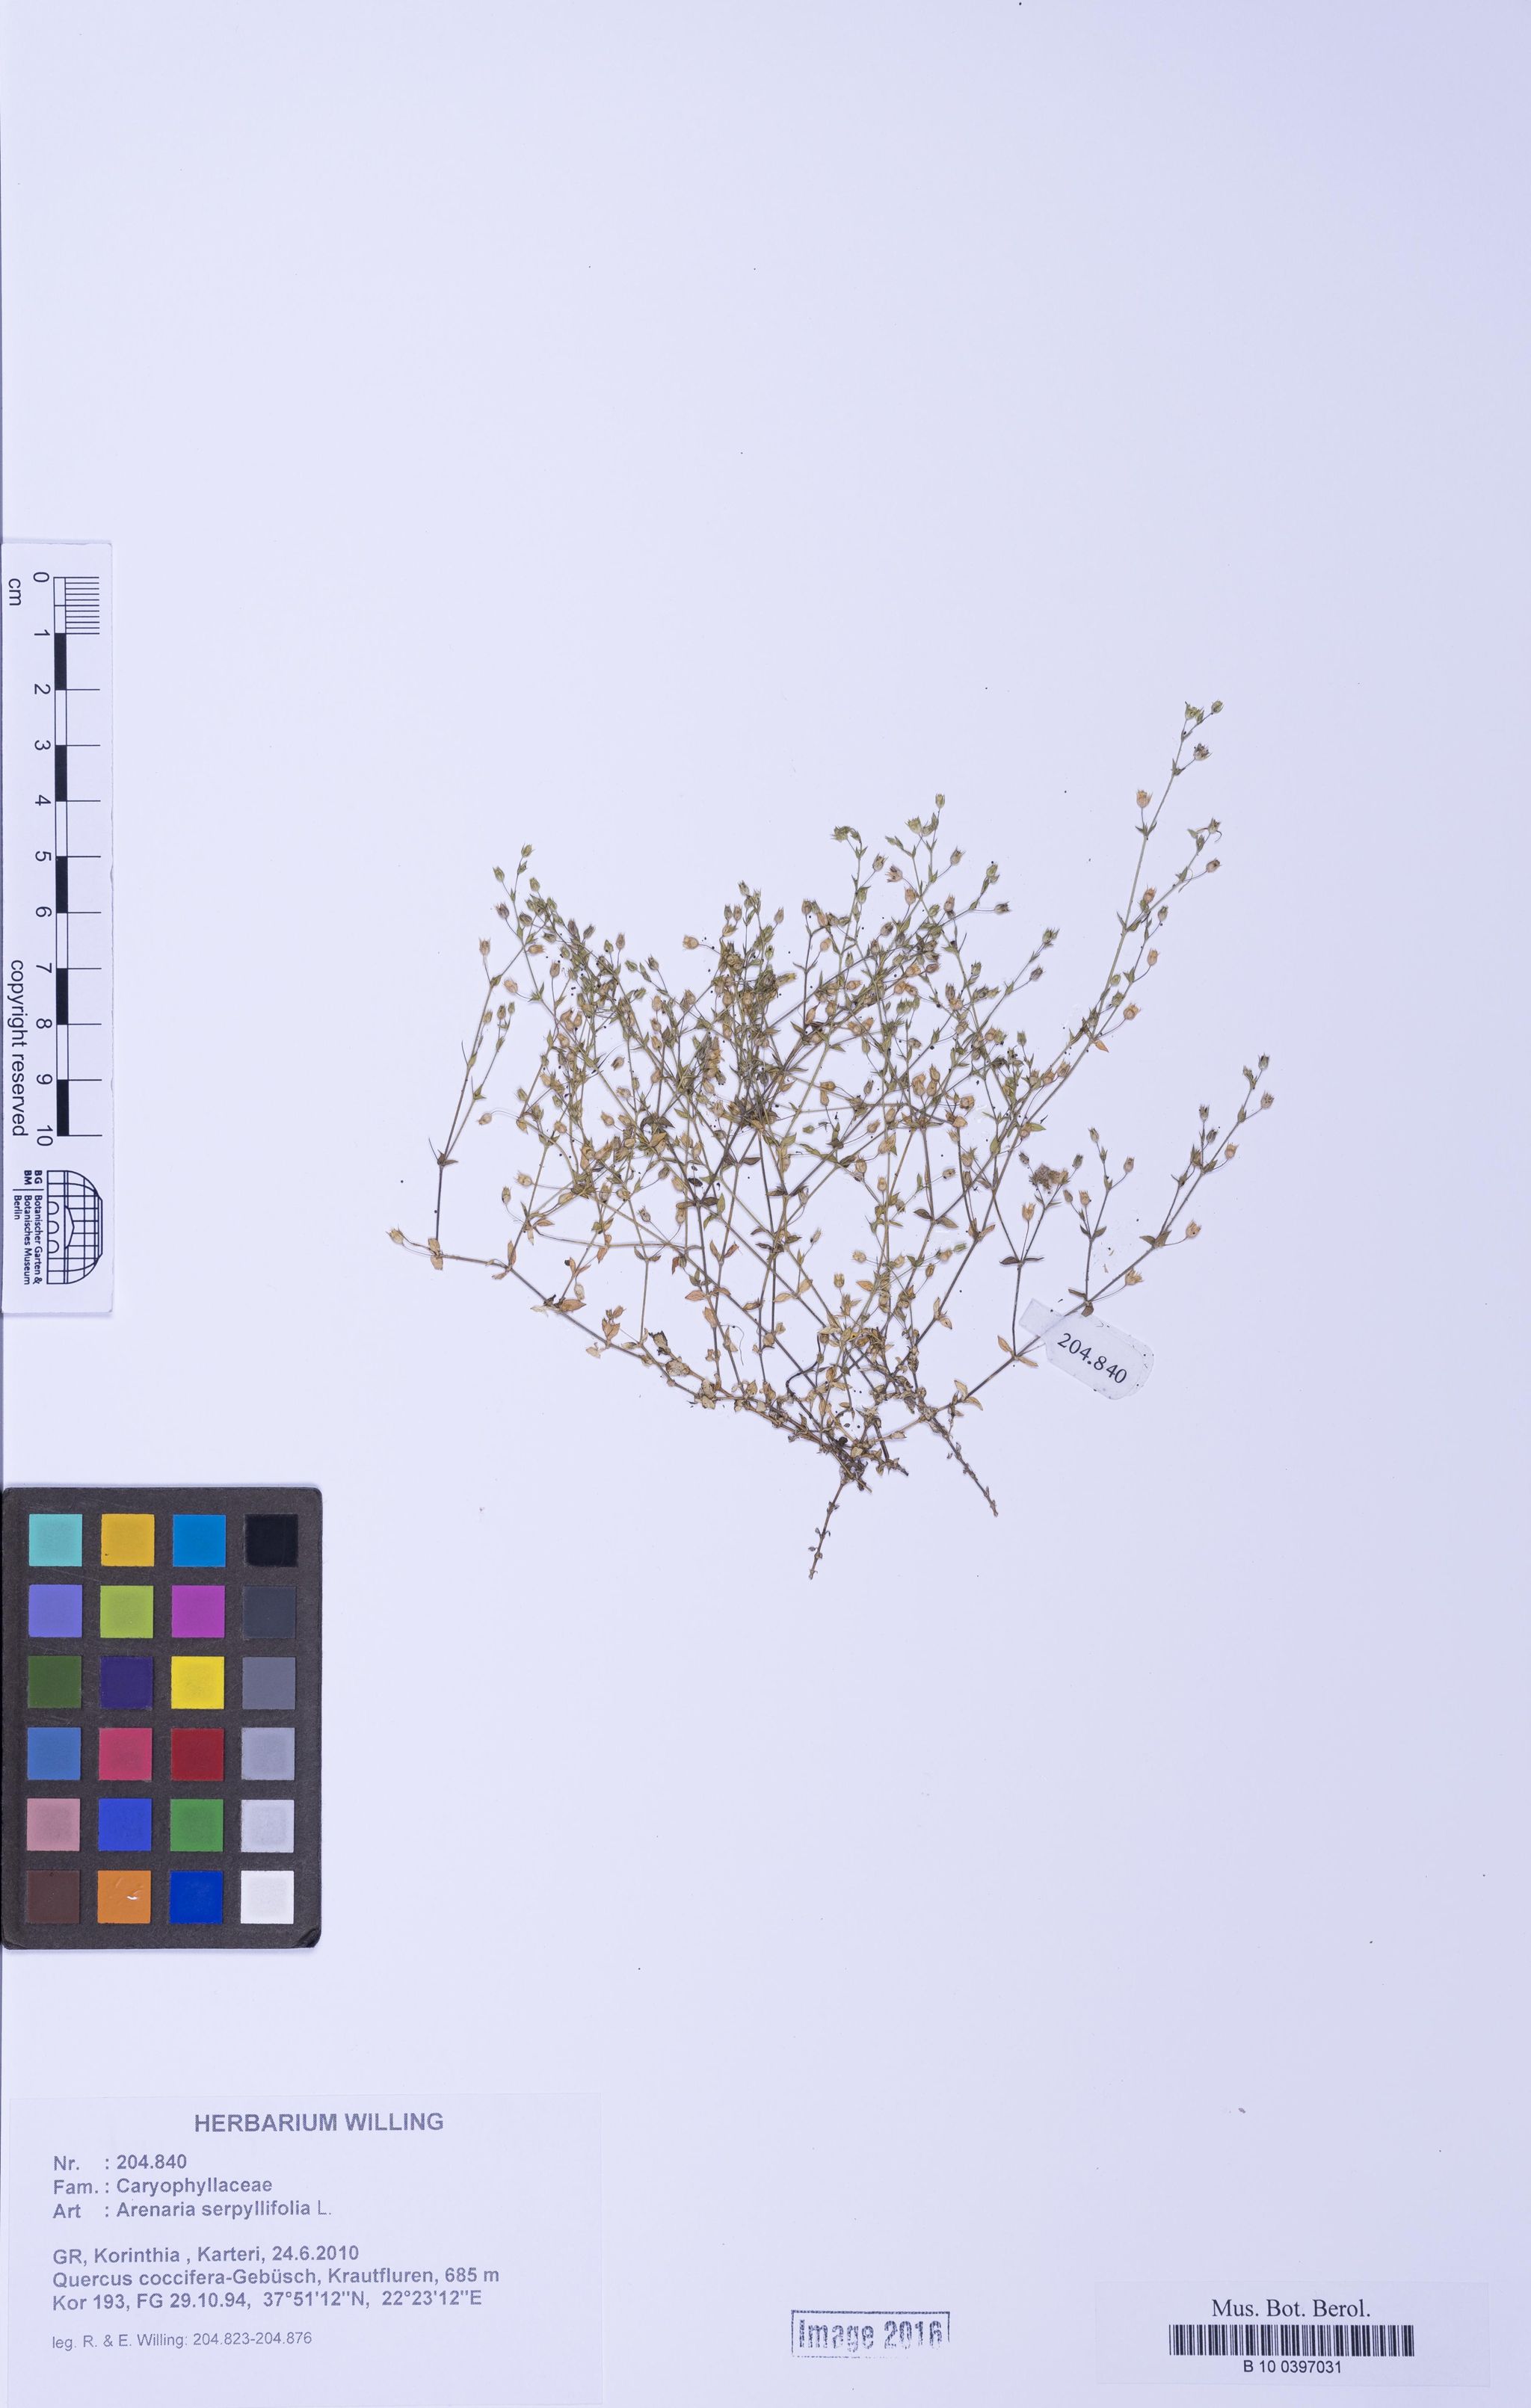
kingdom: Plantae
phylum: Tracheophyta
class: Magnoliopsida
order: Caryophyllales
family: Caryophyllaceae
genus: Arenaria
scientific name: Arenaria serpyllifolia
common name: Thyme-leaved sandwort
